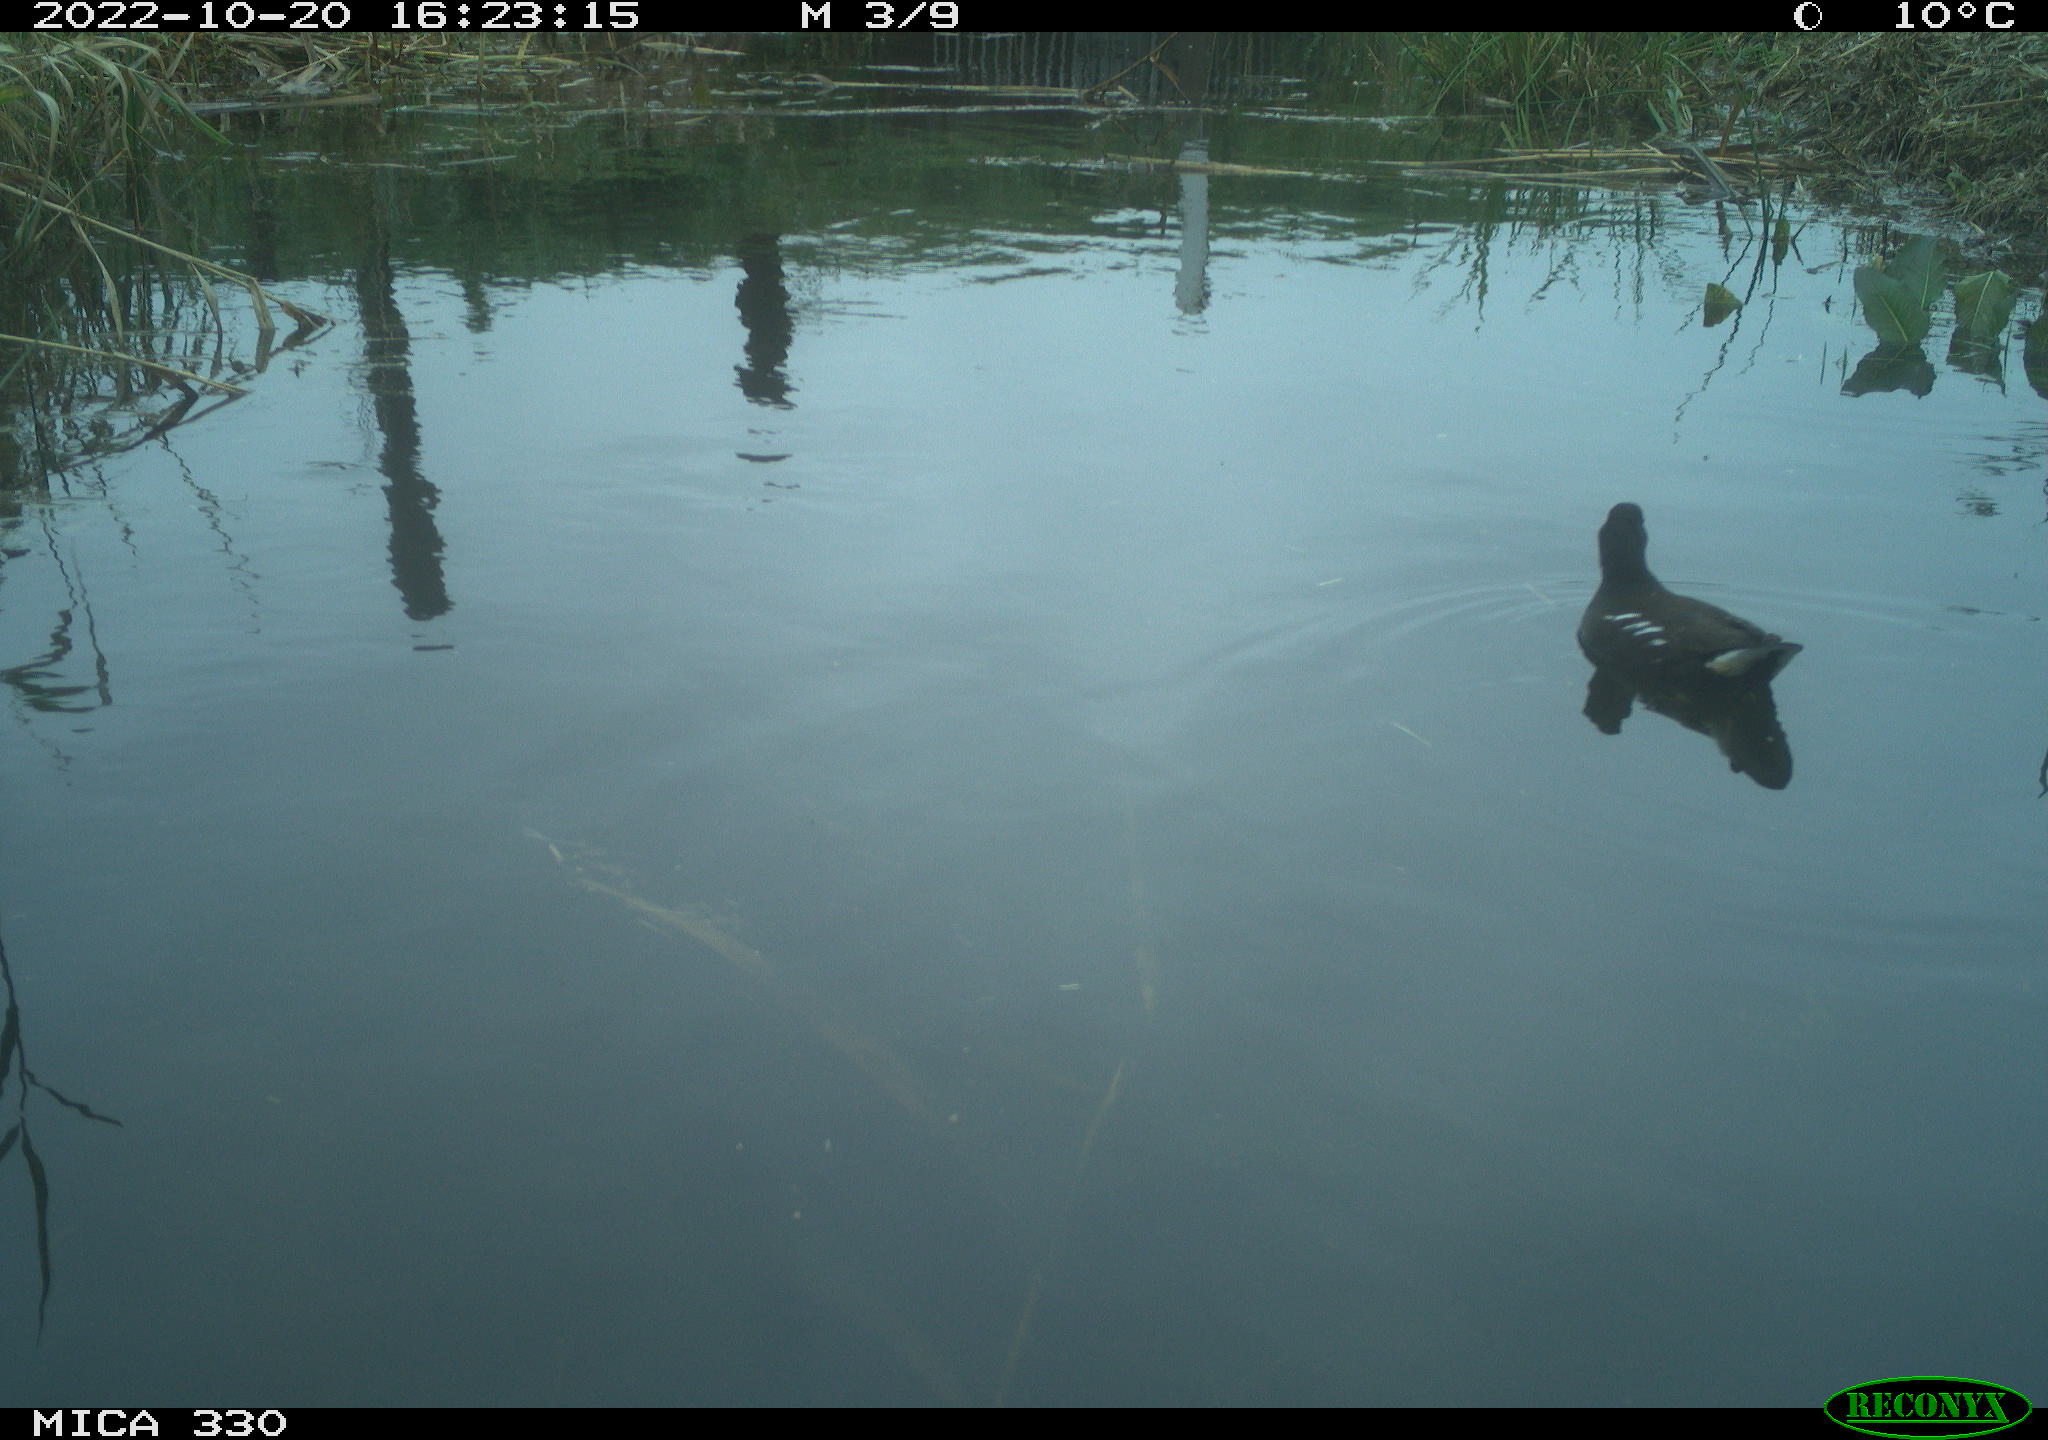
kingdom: Animalia
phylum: Chordata
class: Aves
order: Gruiformes
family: Rallidae
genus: Gallinula
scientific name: Gallinula chloropus
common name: Common moorhen
